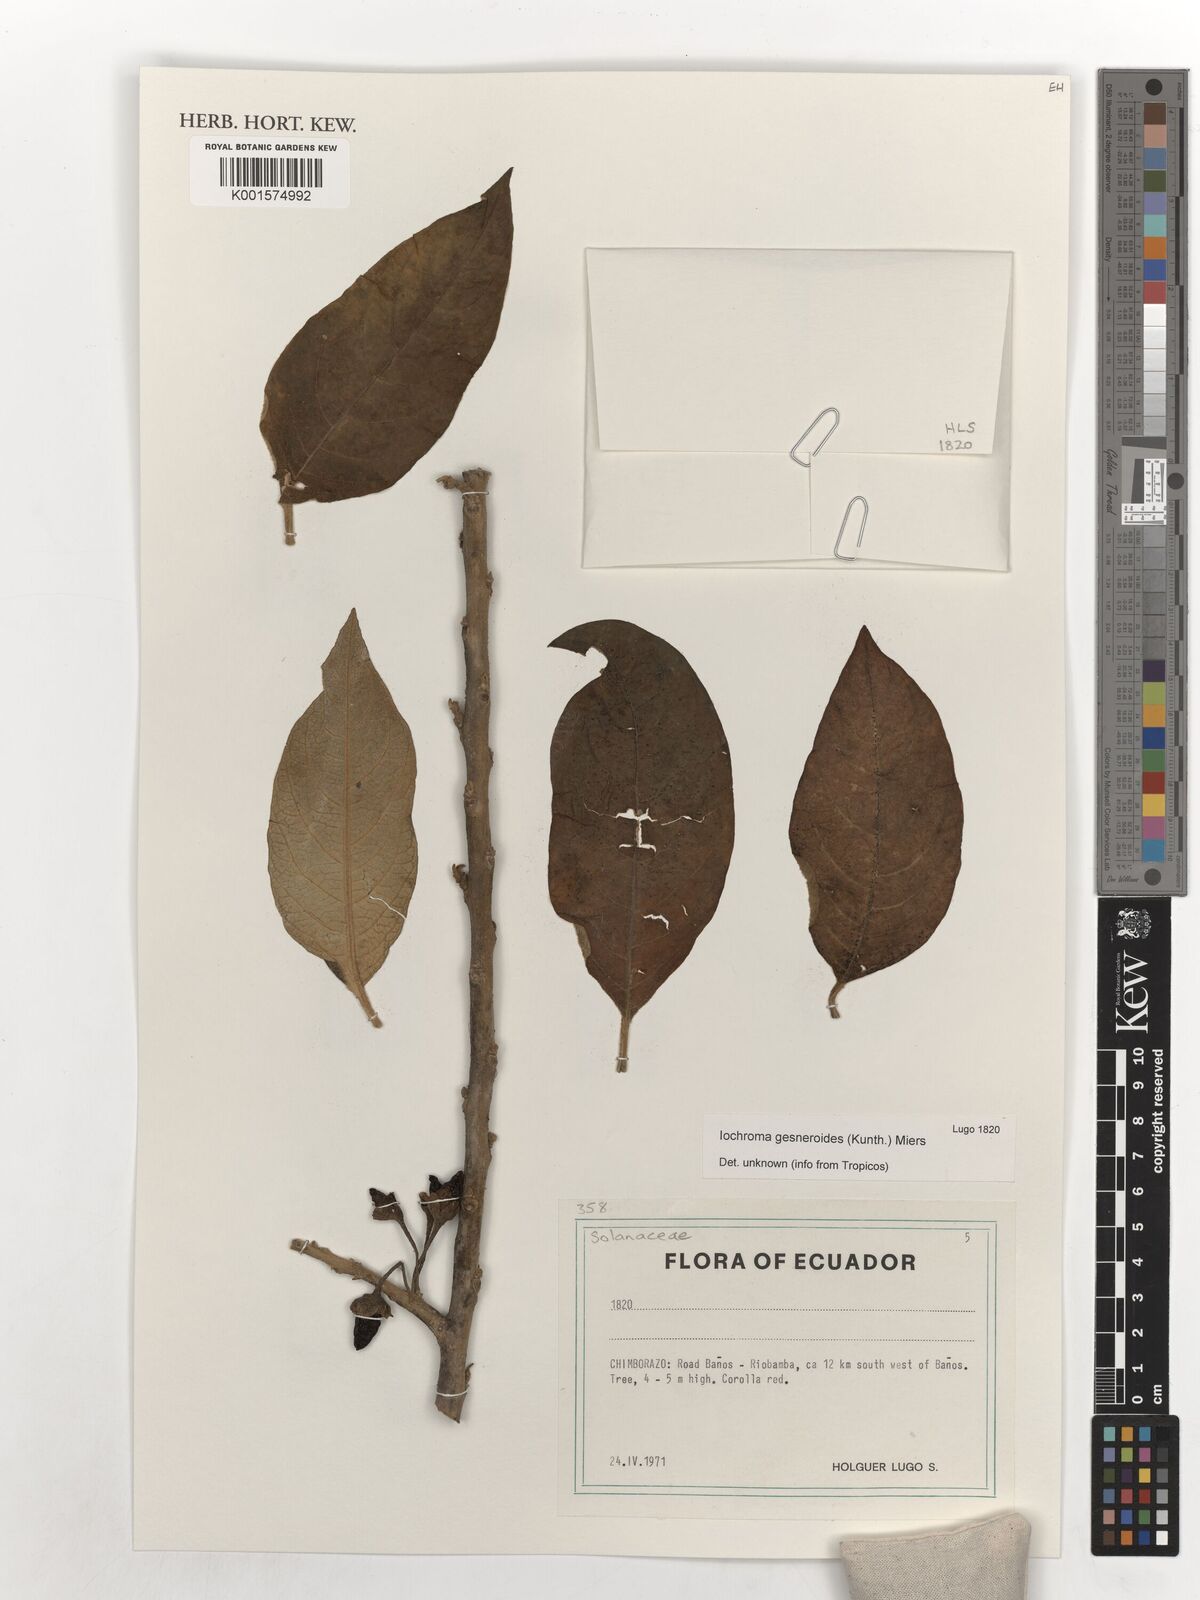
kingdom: Plantae
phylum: Tracheophyta
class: Magnoliopsida
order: Solanales
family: Solanaceae
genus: Iochroma
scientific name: Iochroma gesnerioides
